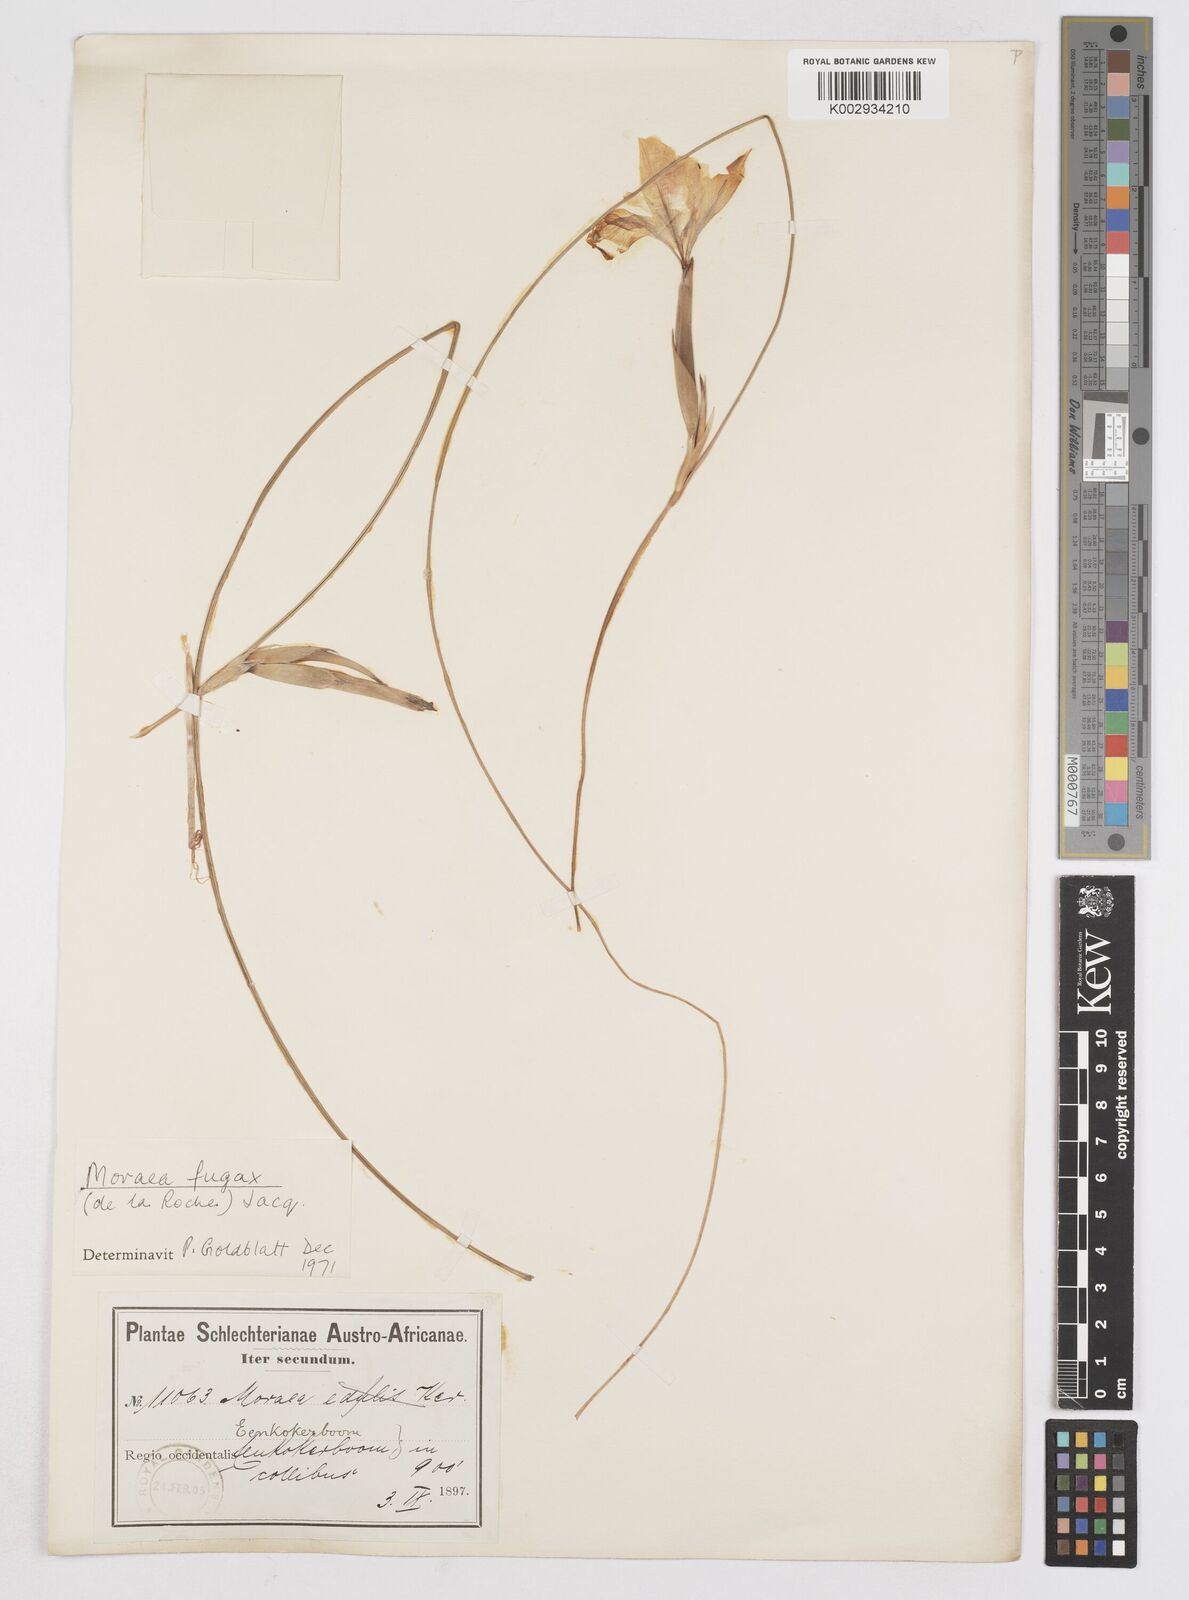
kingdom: Plantae
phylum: Tracheophyta
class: Liliopsida
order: Asparagales
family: Iridaceae
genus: Moraea
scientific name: Moraea fugax
